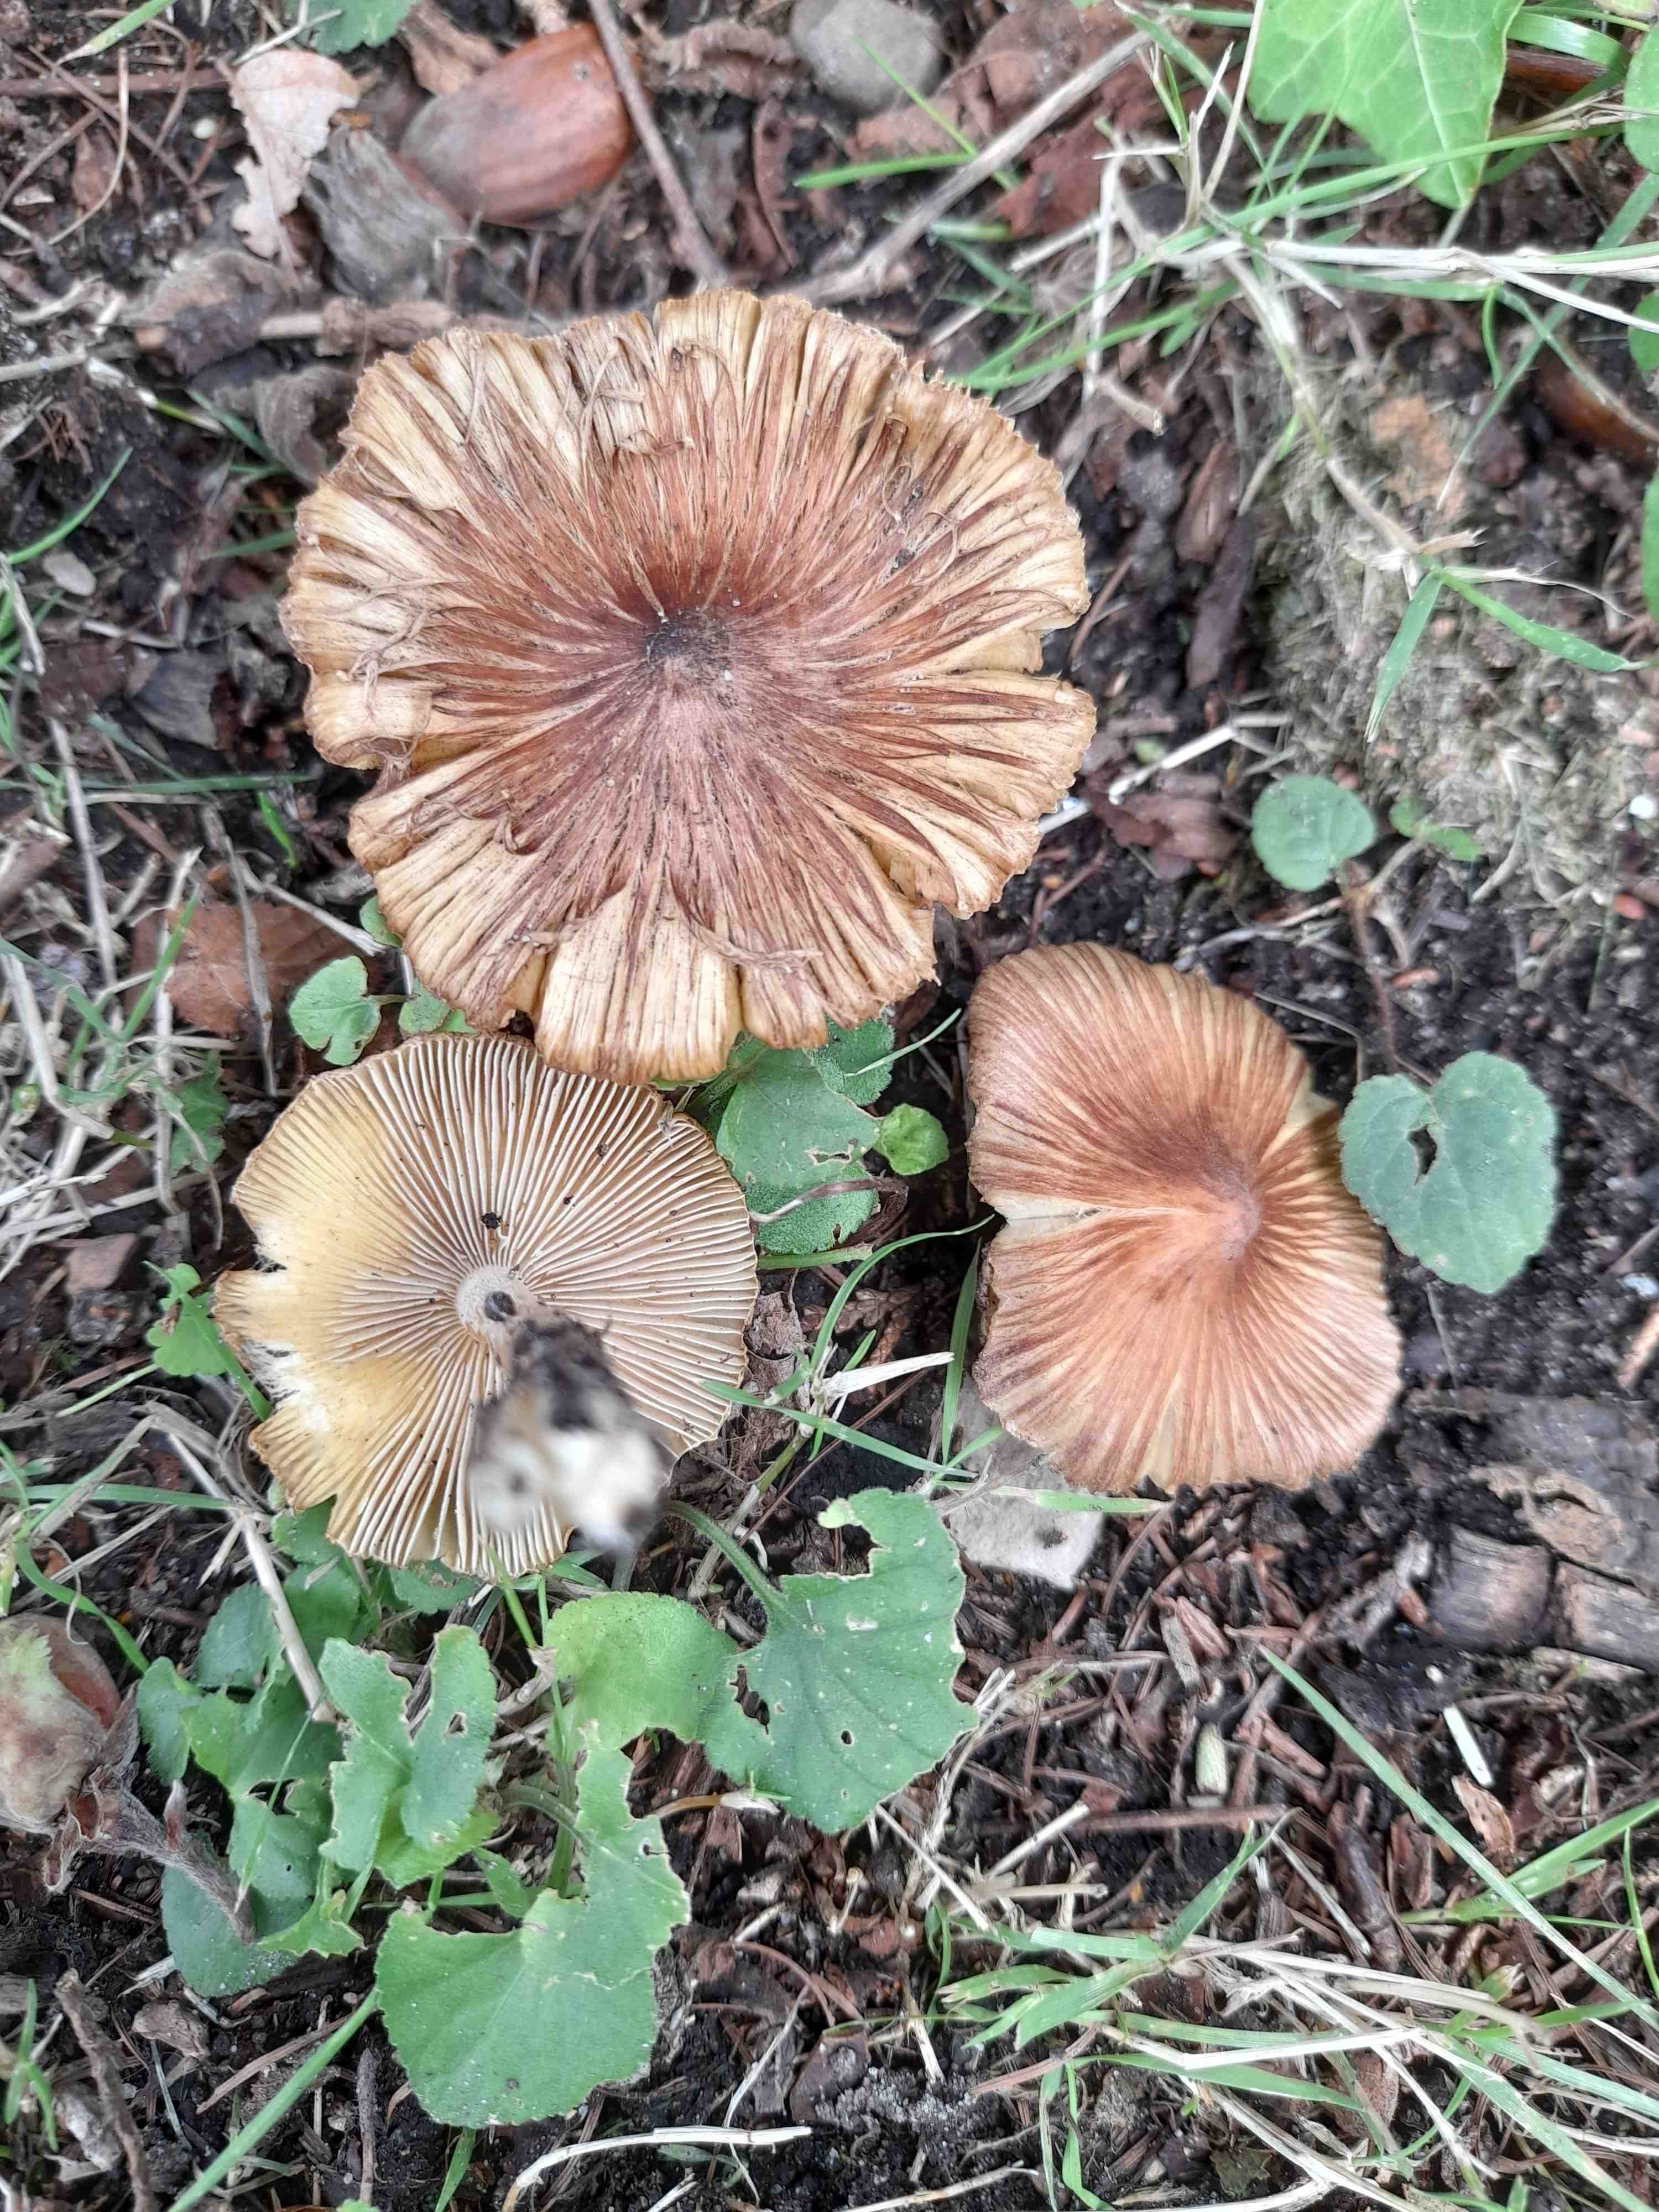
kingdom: Fungi
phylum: Basidiomycota
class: Agaricomycetes
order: Agaricales
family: Inocybaceae
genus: Pseudosperma
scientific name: Pseudosperma
